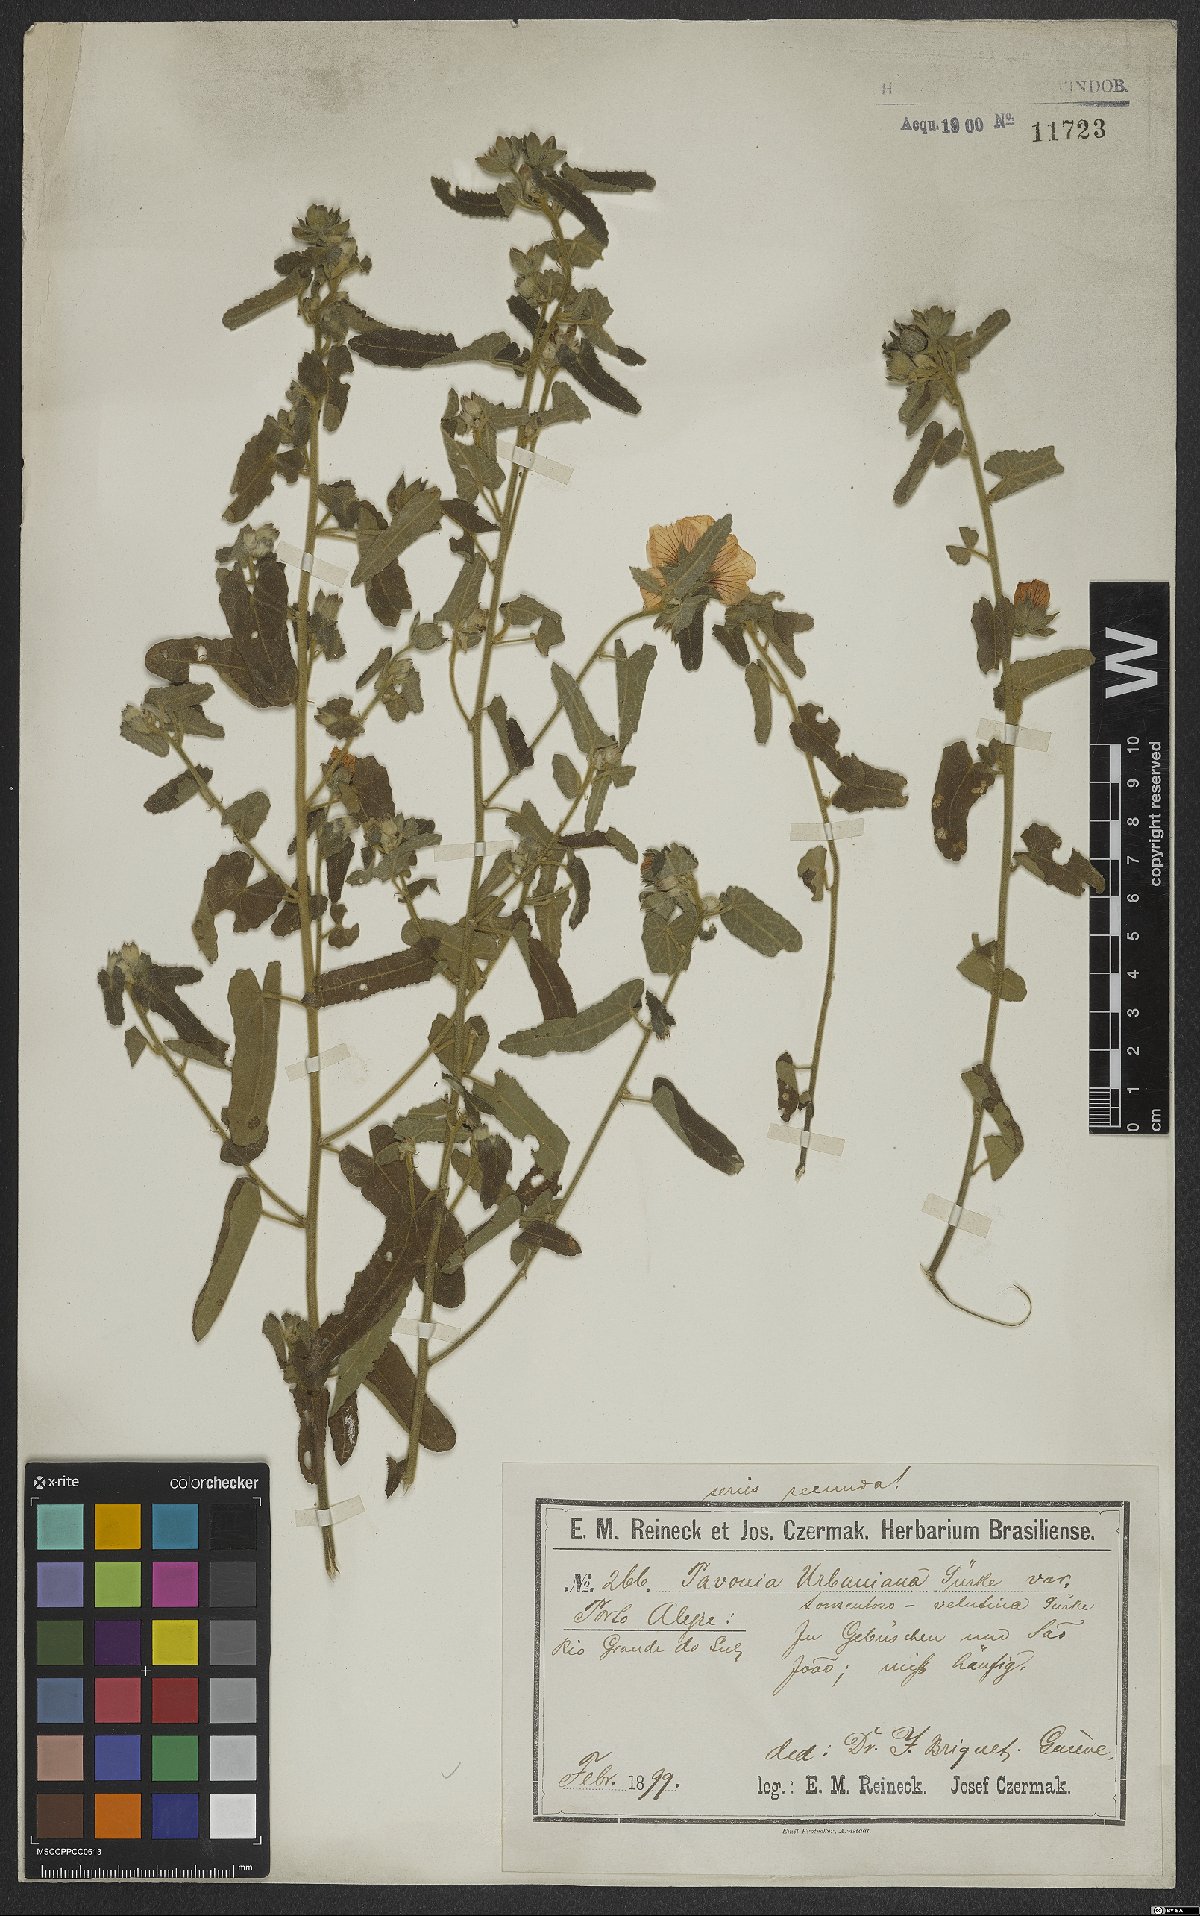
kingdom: Plantae
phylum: Tracheophyta
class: Magnoliopsida
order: Malvales
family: Malvaceae
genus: Pavonia
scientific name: Pavonia distinguenda
